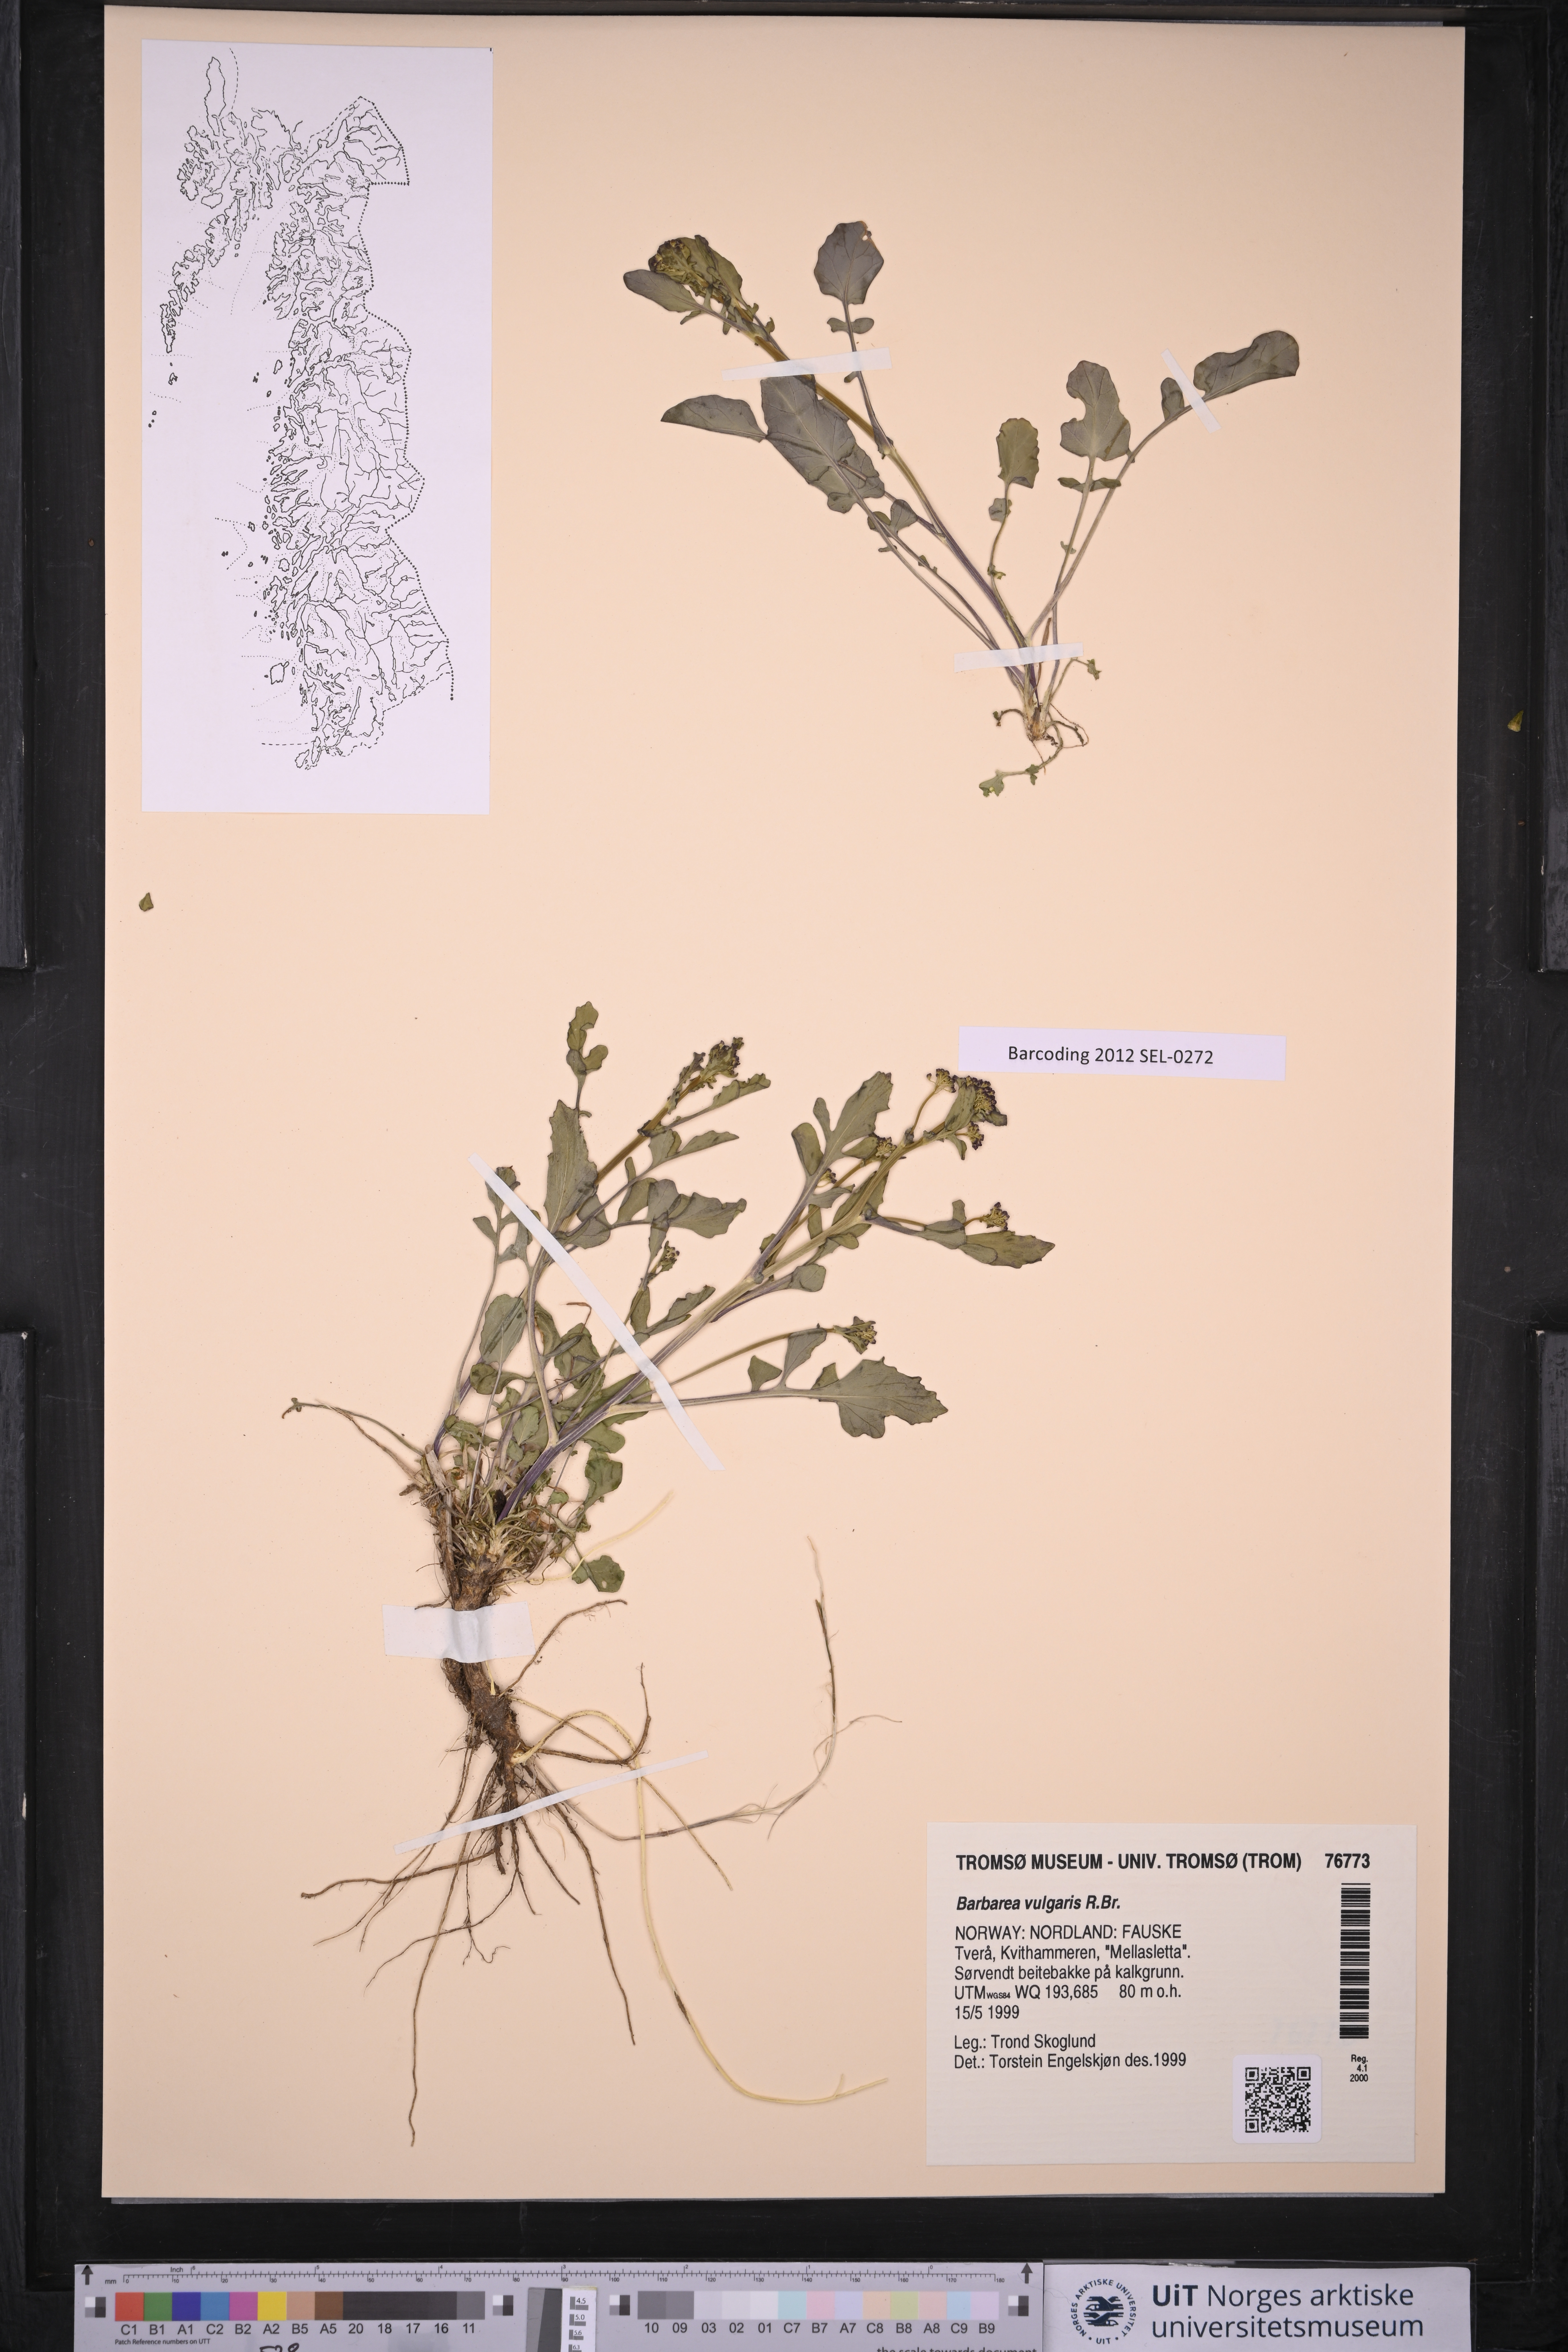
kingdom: Plantae
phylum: Tracheophyta
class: Magnoliopsida
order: Brassicales
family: Brassicaceae
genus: Barbarea
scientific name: Barbarea vulgaris
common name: Cressy-greens
